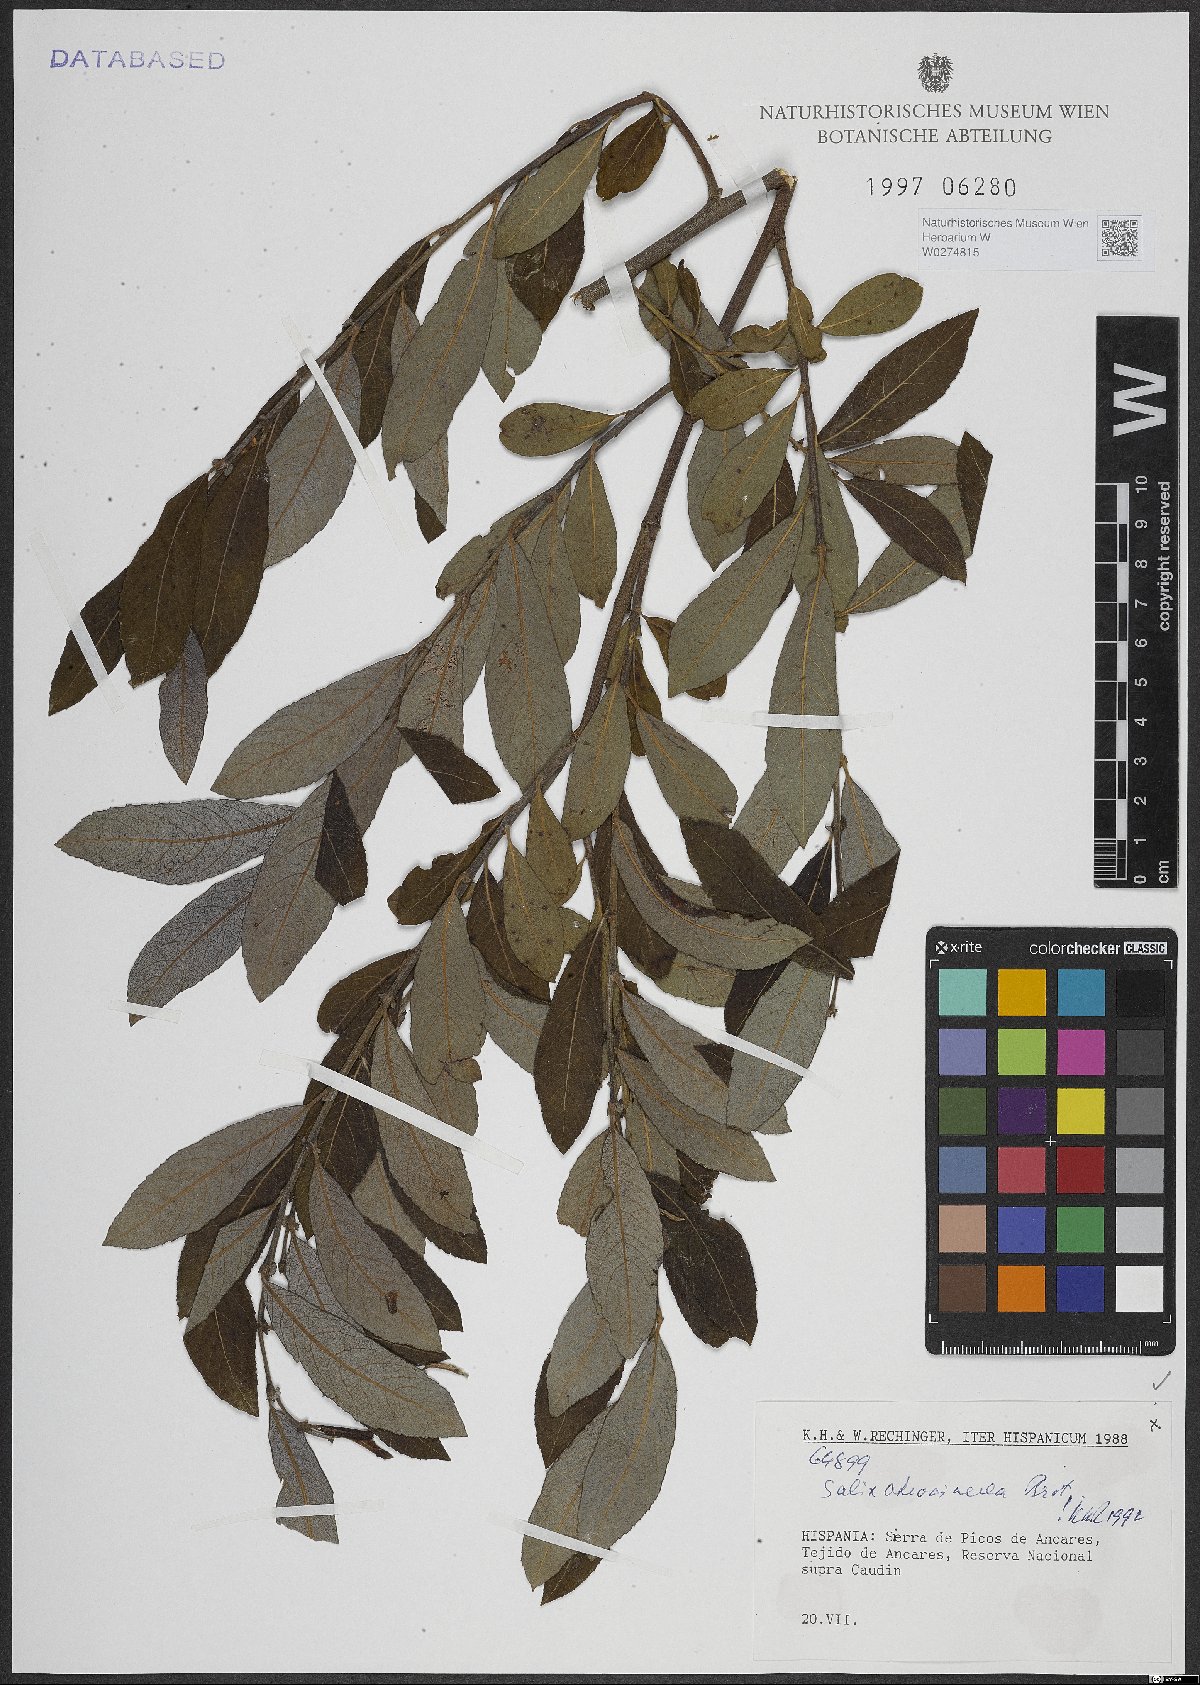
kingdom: Plantae
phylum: Tracheophyta
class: Magnoliopsida
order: Malpighiales
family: Salicaceae
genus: Salix
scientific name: Salix atrocinerea
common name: Rusty willow
